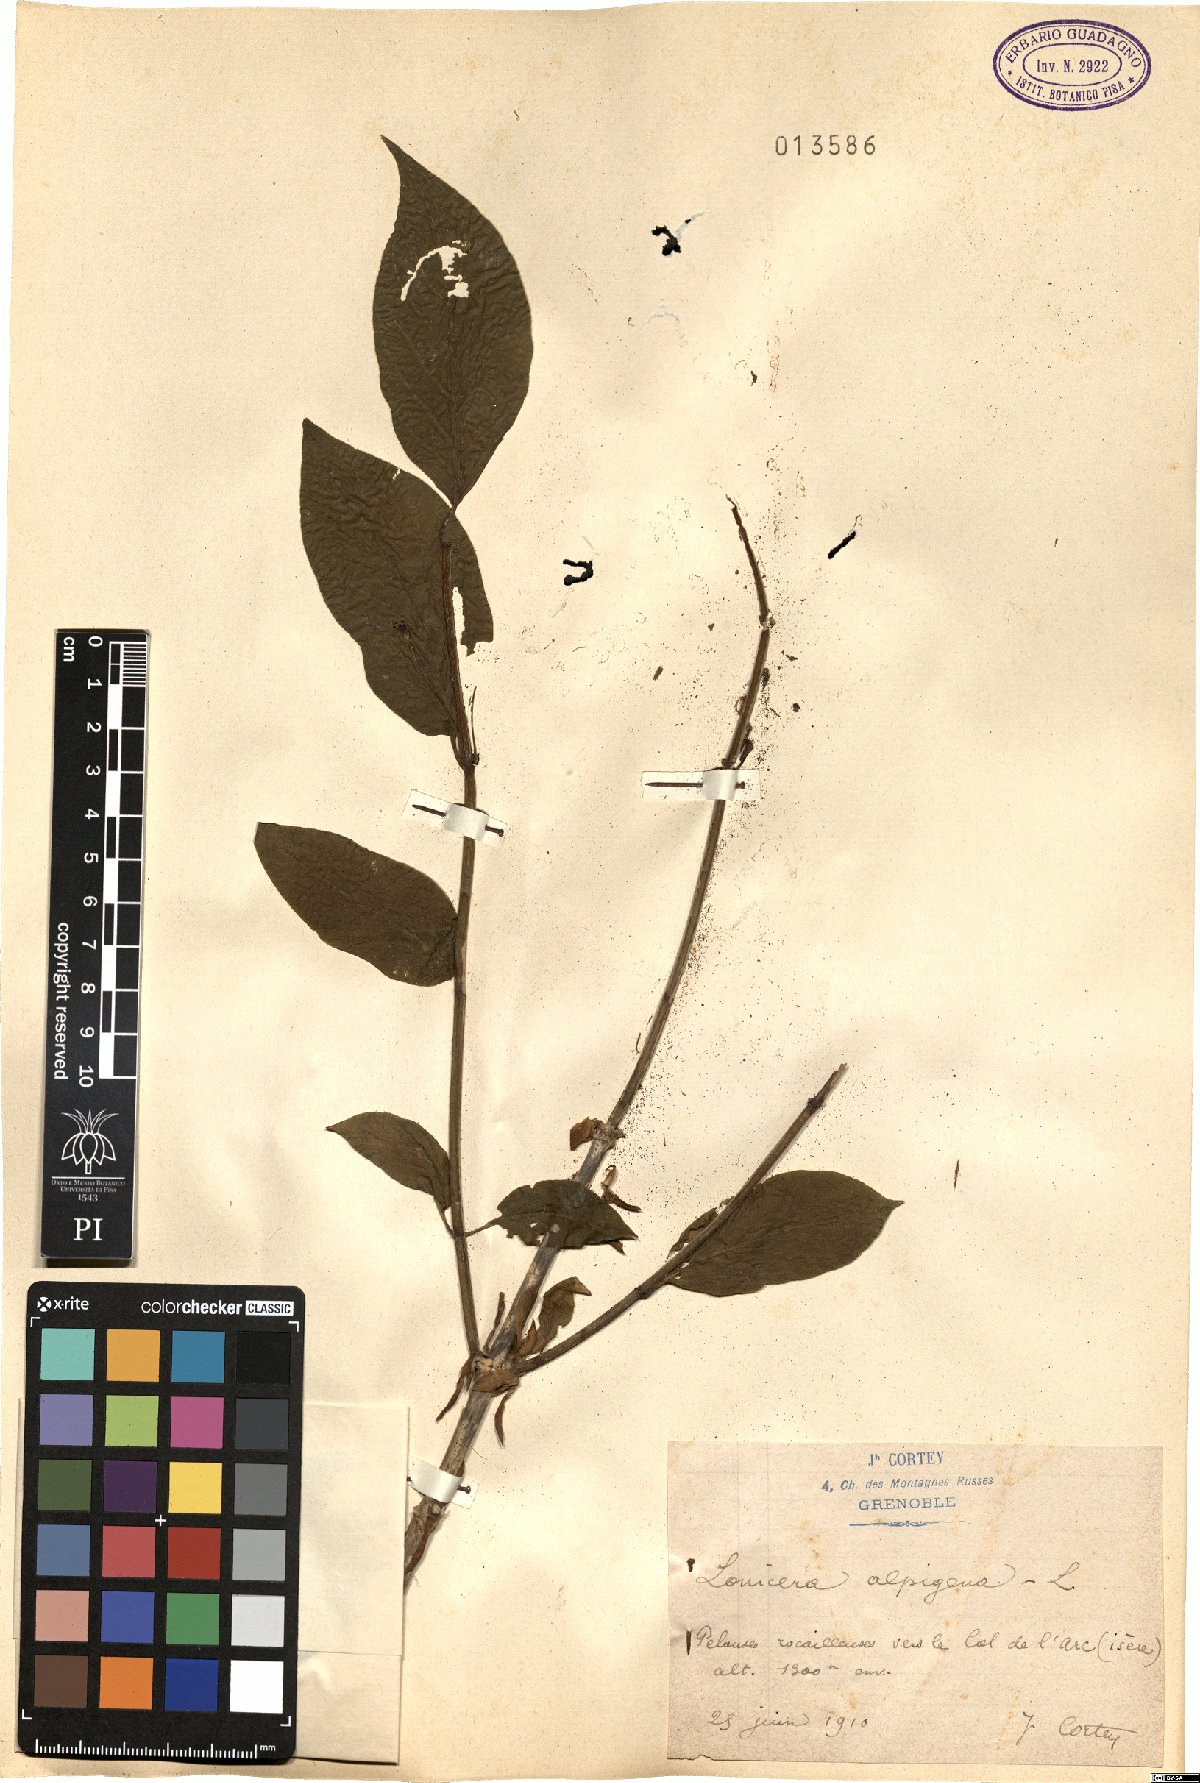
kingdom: Plantae
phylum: Tracheophyta
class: Magnoliopsida
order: Dipsacales
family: Caprifoliaceae
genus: Lonicera
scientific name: Lonicera alpigena
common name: Alpine honeysuckle
